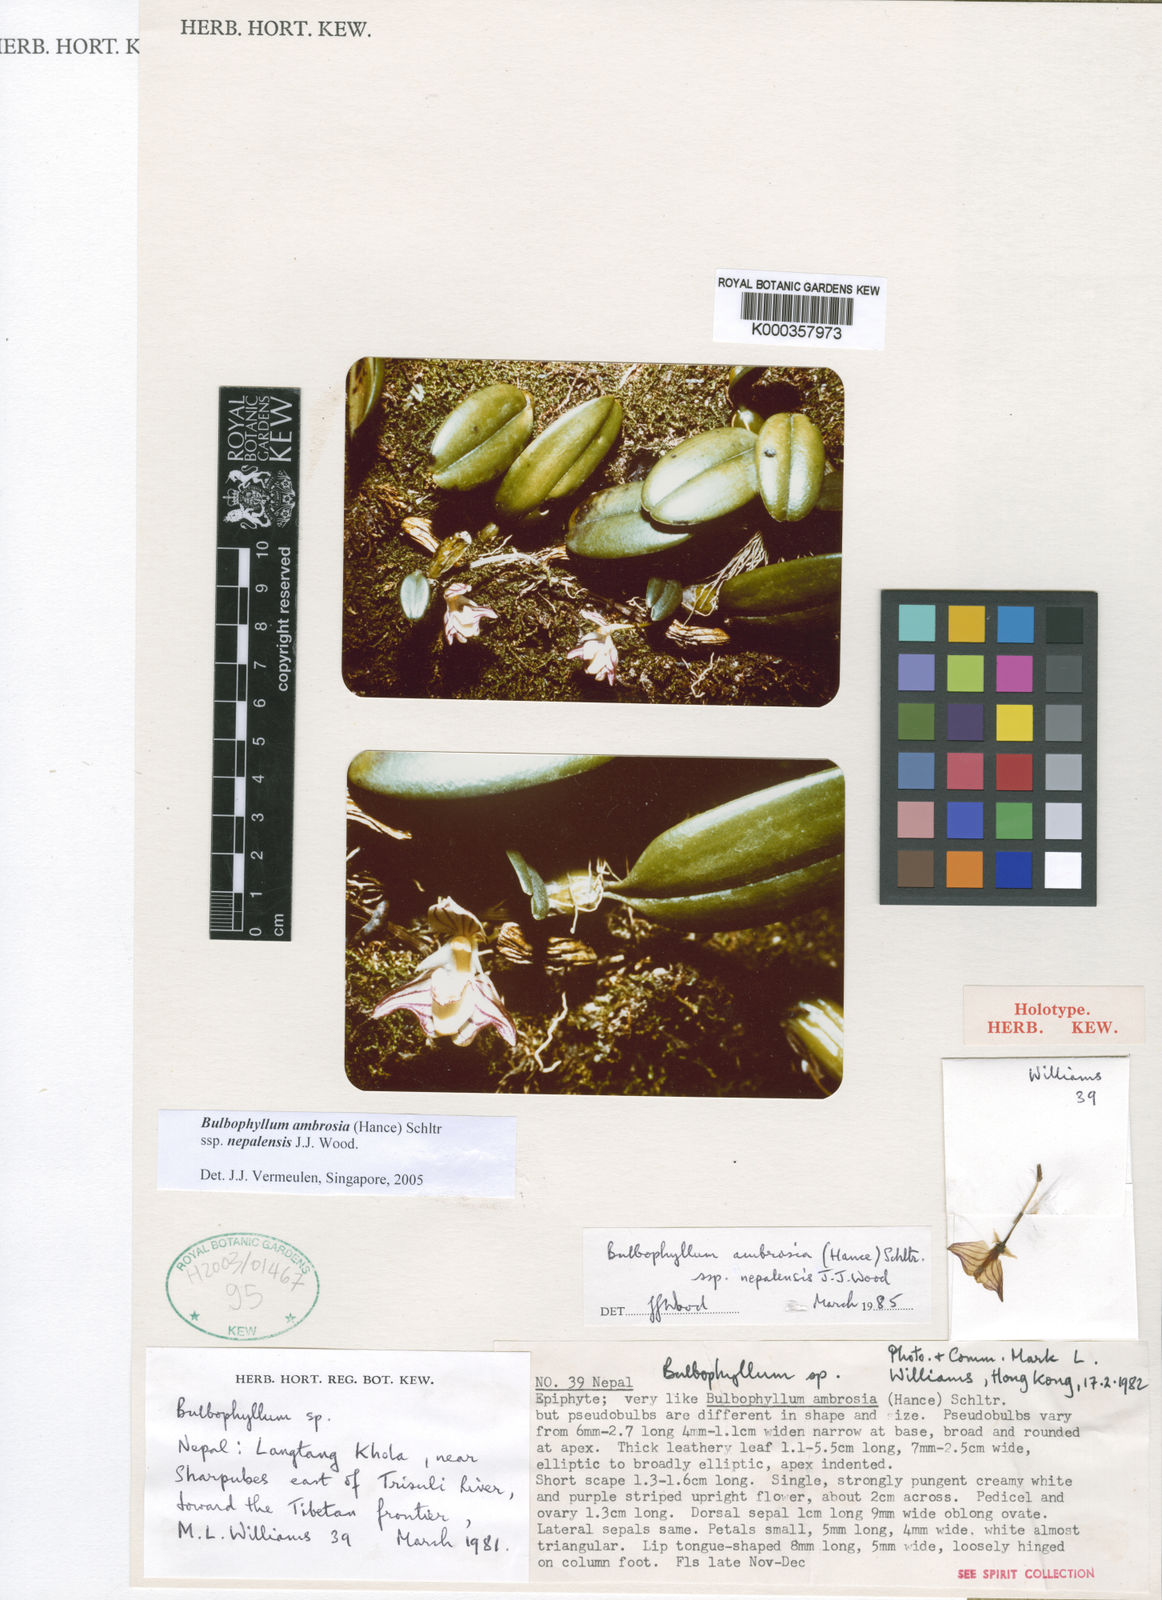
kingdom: Plantae
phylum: Tracheophyta
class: Liliopsida
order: Asparagales
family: Orchidaceae
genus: Bulbophyllum
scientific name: Bulbophyllum ambrosia
